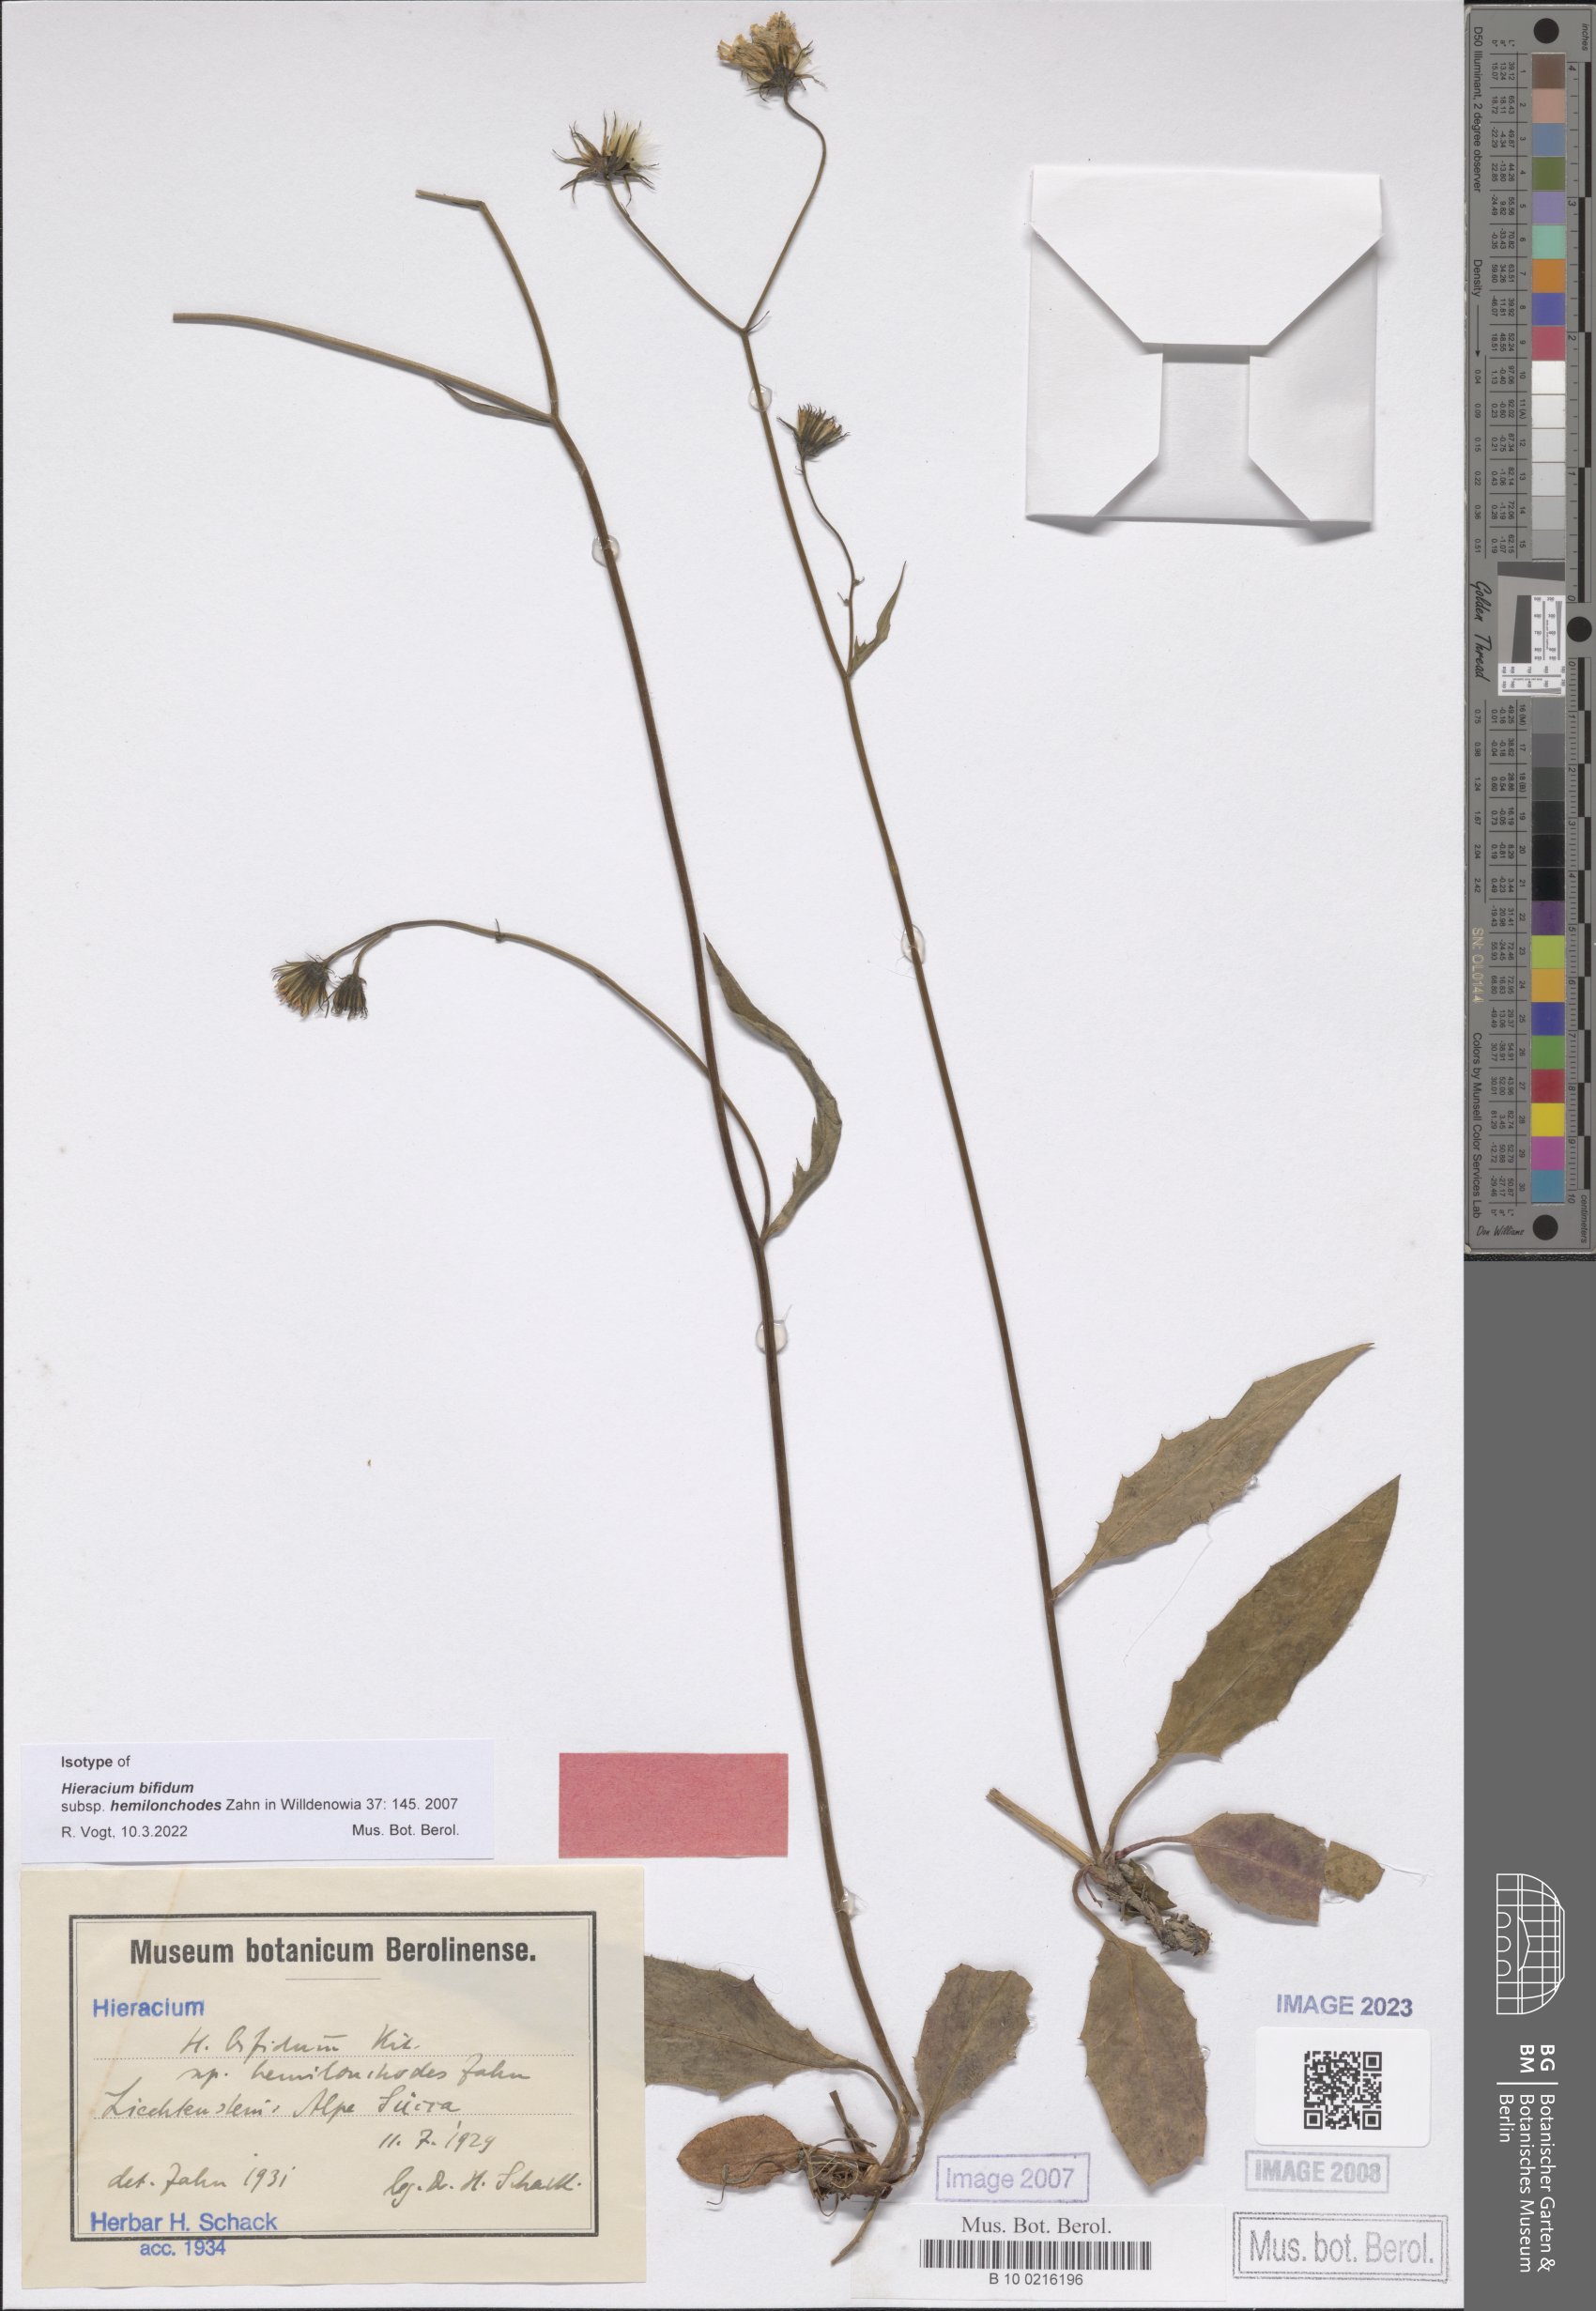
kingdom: Plantae
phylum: Tracheophyta
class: Magnoliopsida
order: Asterales
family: Asteraceae
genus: Hieracium
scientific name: Hieracium bifidum
